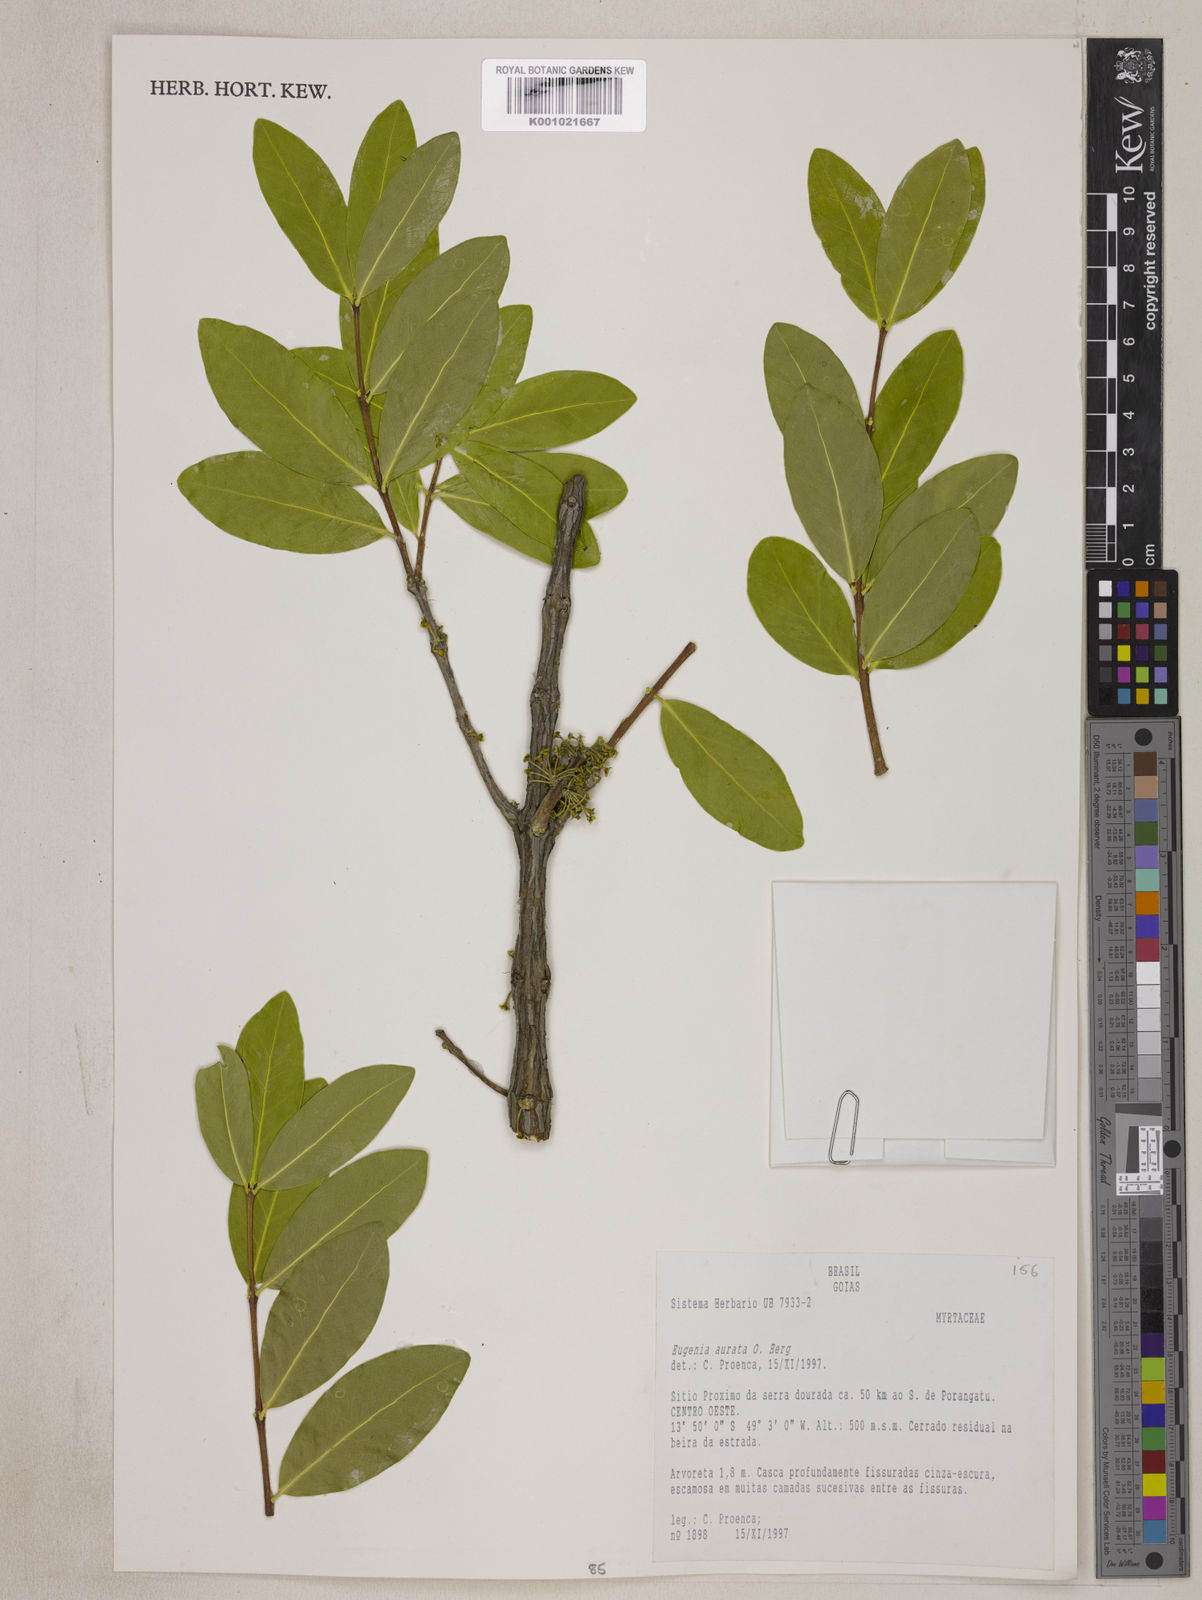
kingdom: Plantae
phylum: Tracheophyta
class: Magnoliopsida
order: Myrtales
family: Myrtaceae
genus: Eugenia
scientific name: Eugenia aurata
